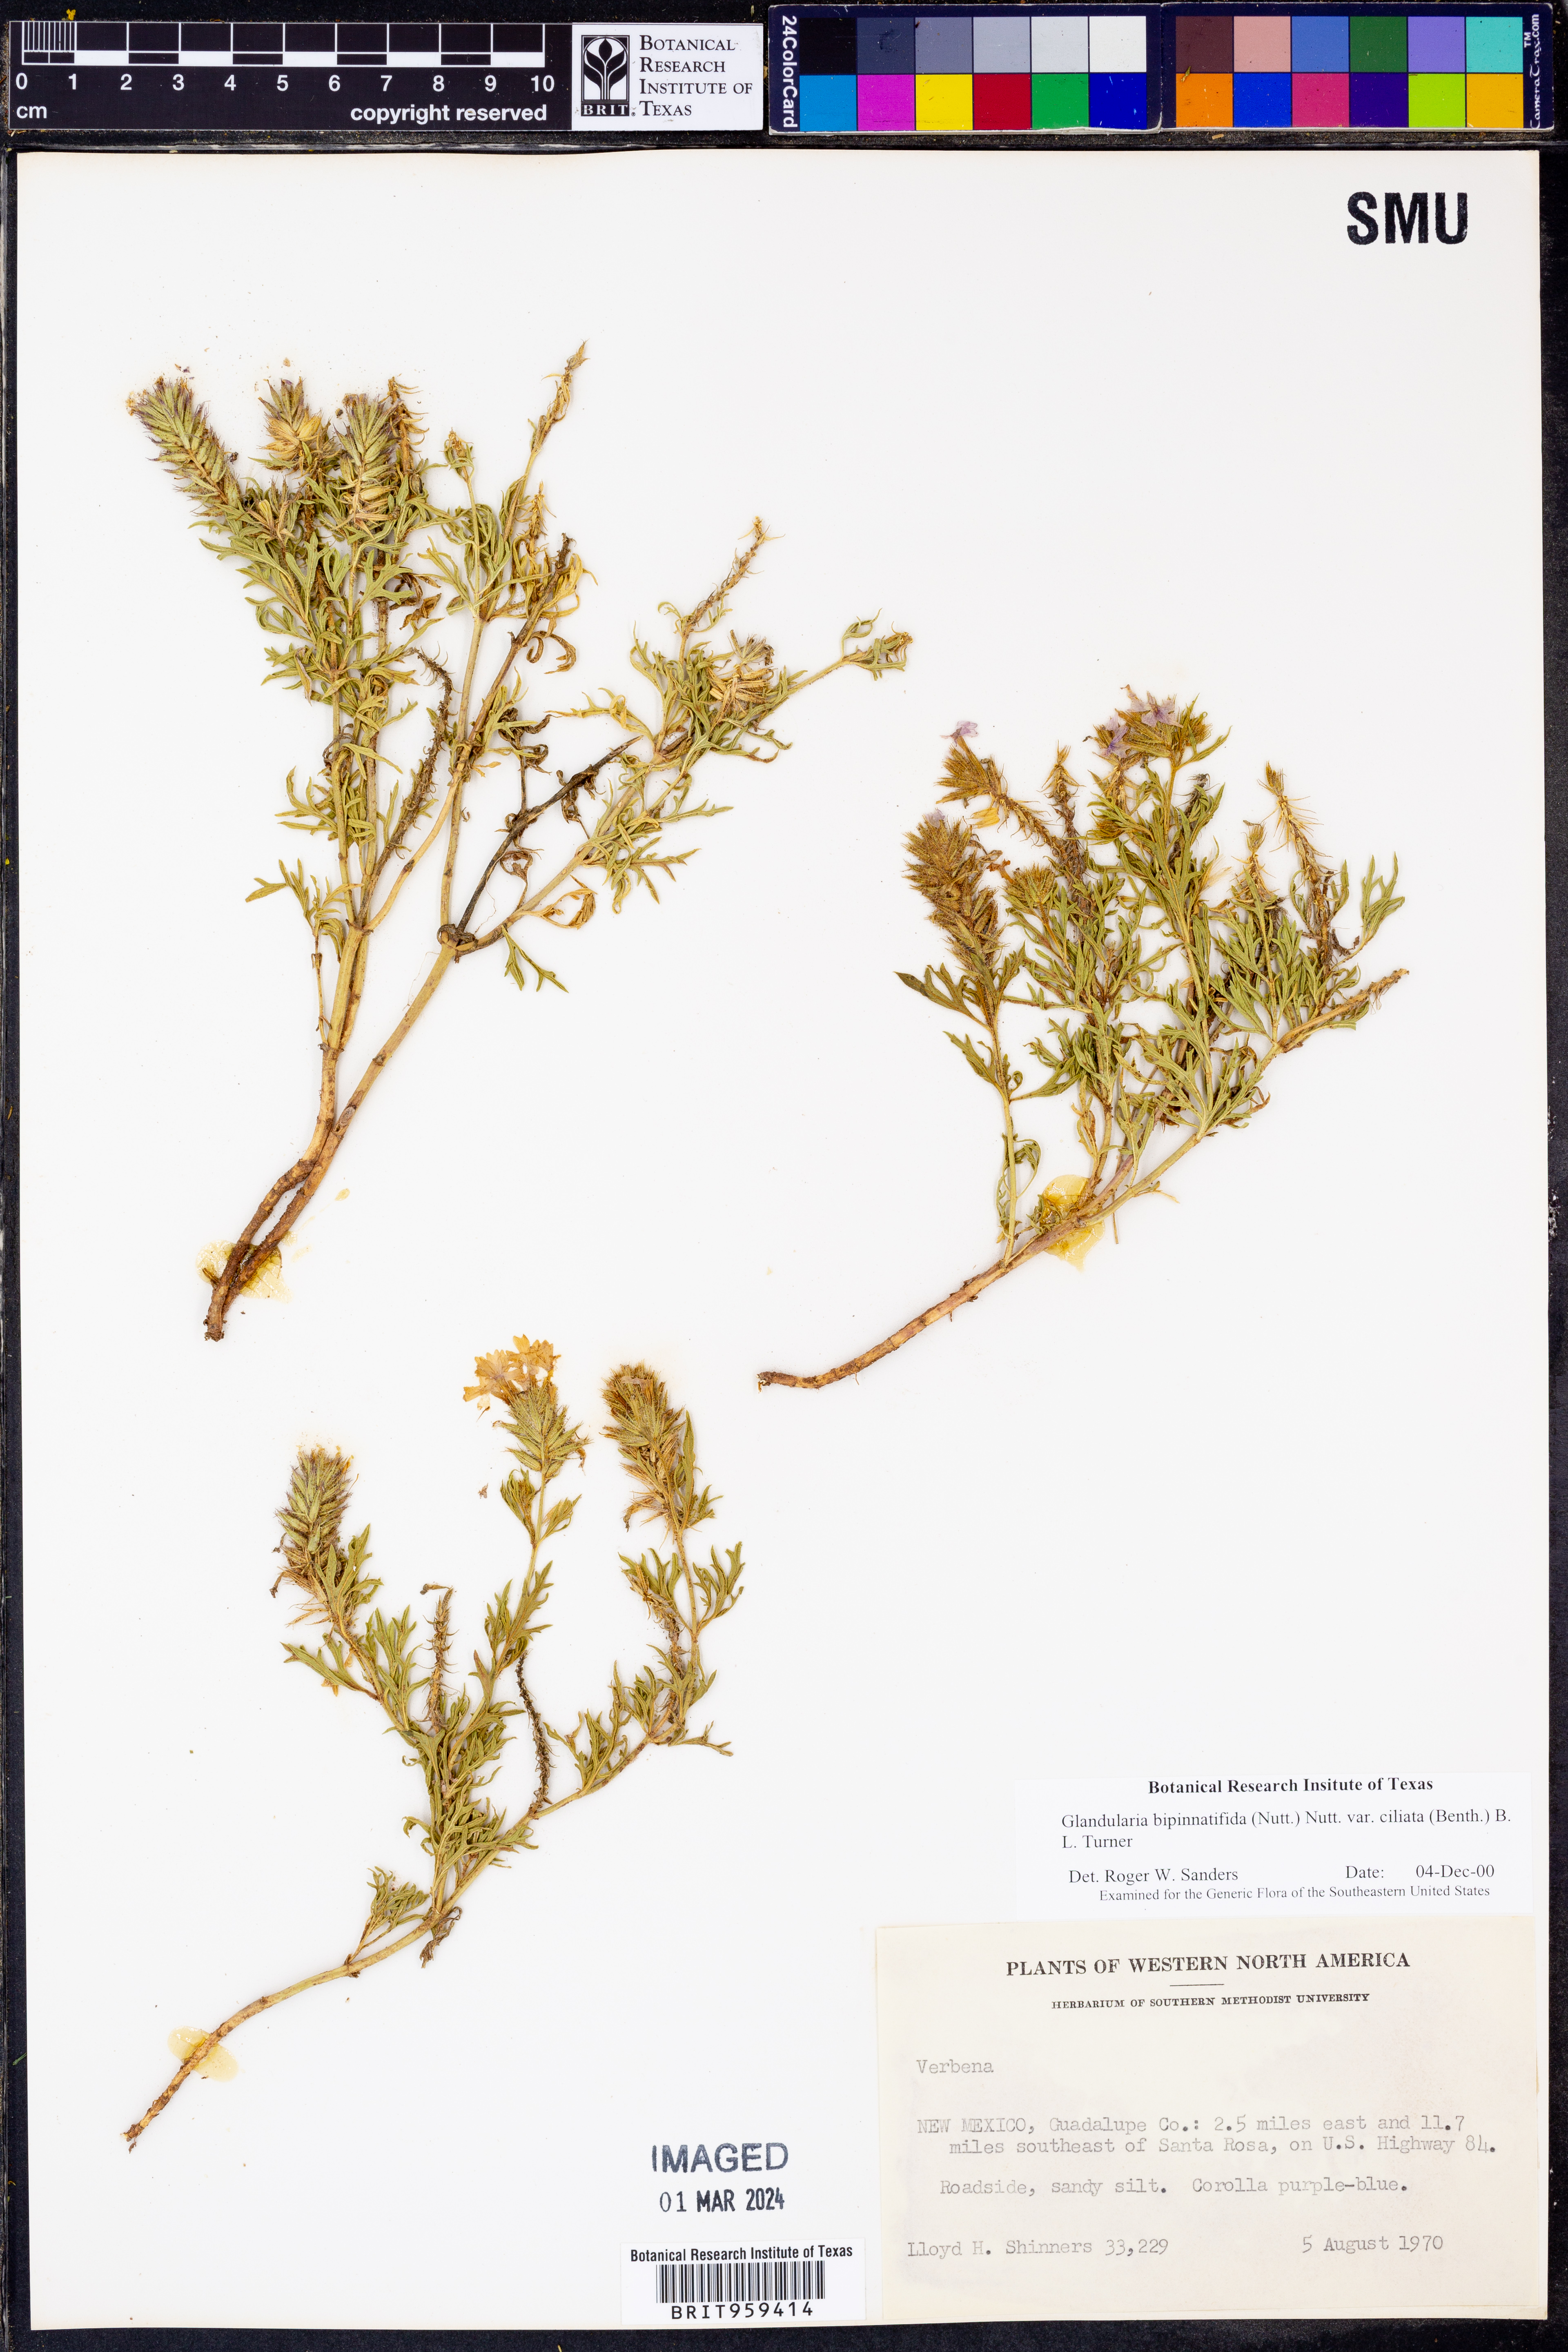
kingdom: Plantae
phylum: Tracheophyta
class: Magnoliopsida
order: Lamiales
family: Verbenaceae
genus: Verbena
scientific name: Verbena bipinnatifida
